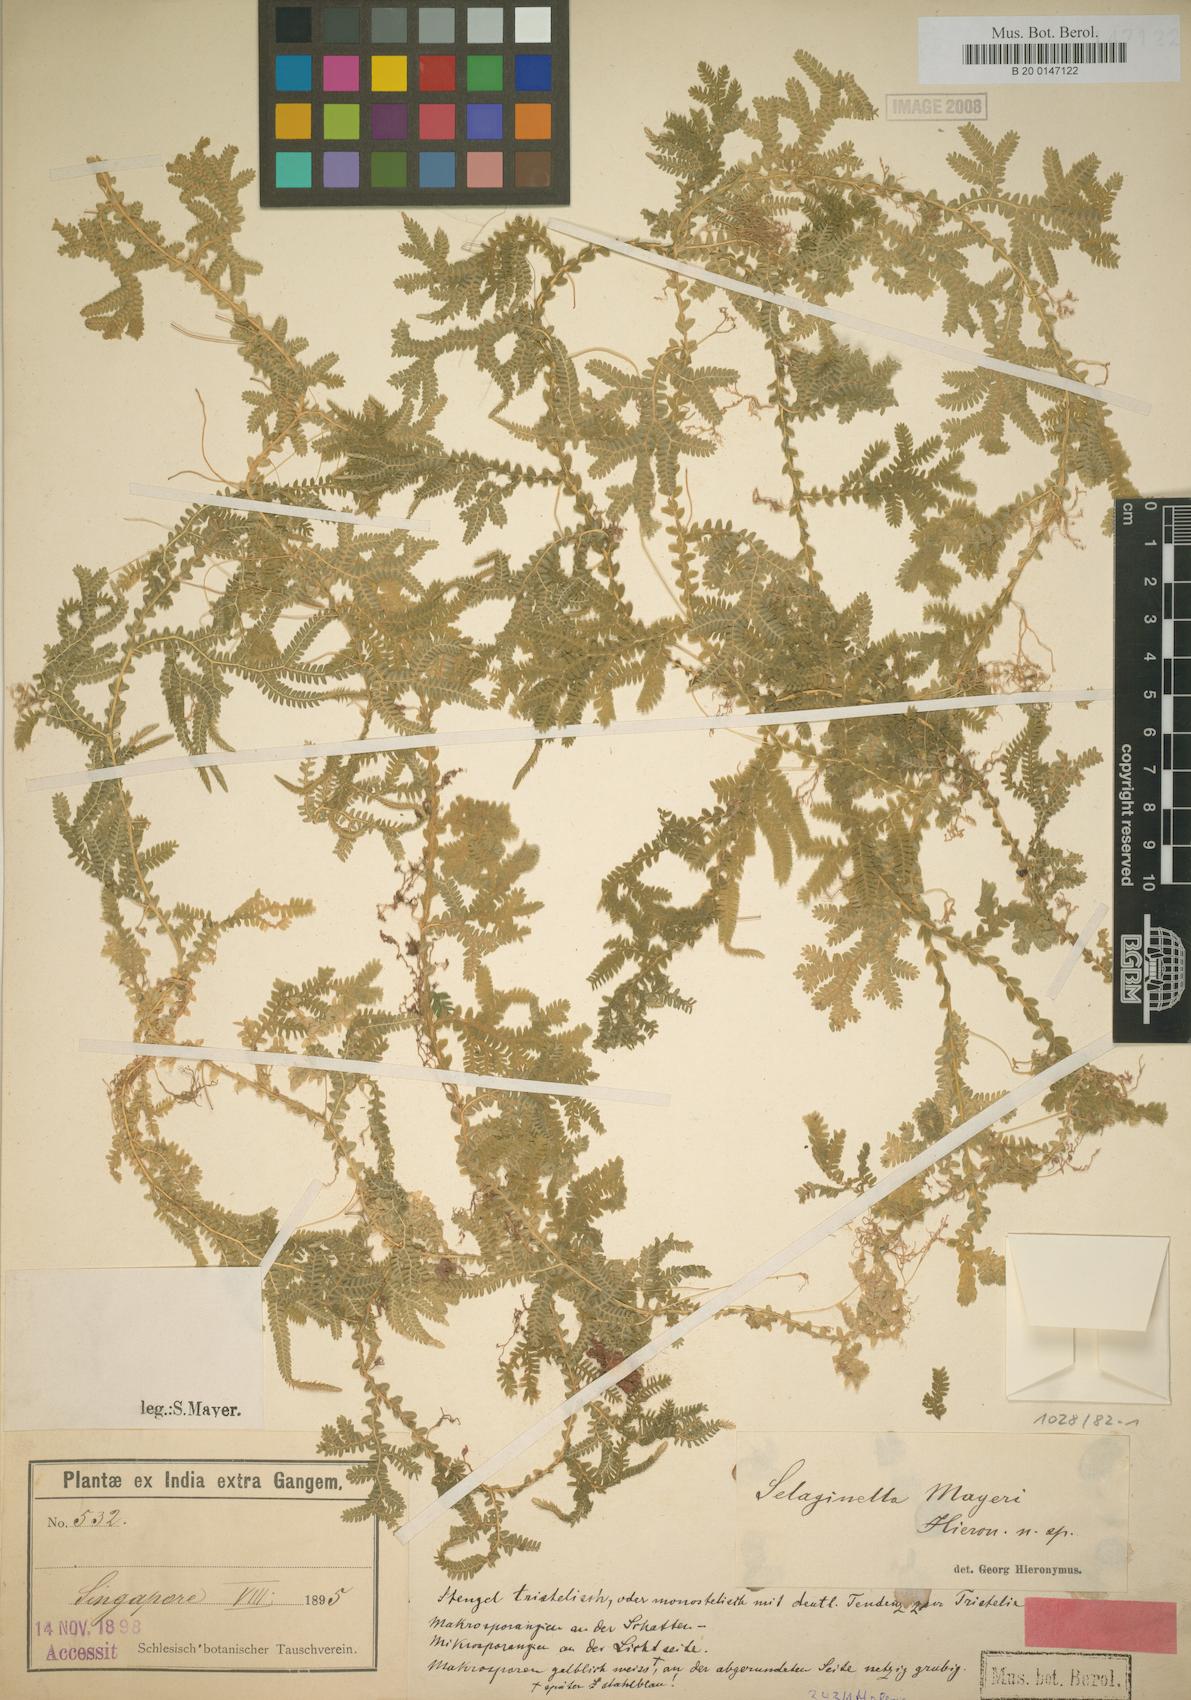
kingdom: Plantae
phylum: Tracheophyta
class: Lycopodiopsida
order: Selaginellales
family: Selaginellaceae
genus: Selaginella
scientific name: Selaginella mayeri
